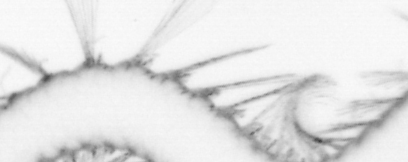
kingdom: Animalia
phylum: Annelida
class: Polychaeta
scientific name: Polychaeta
